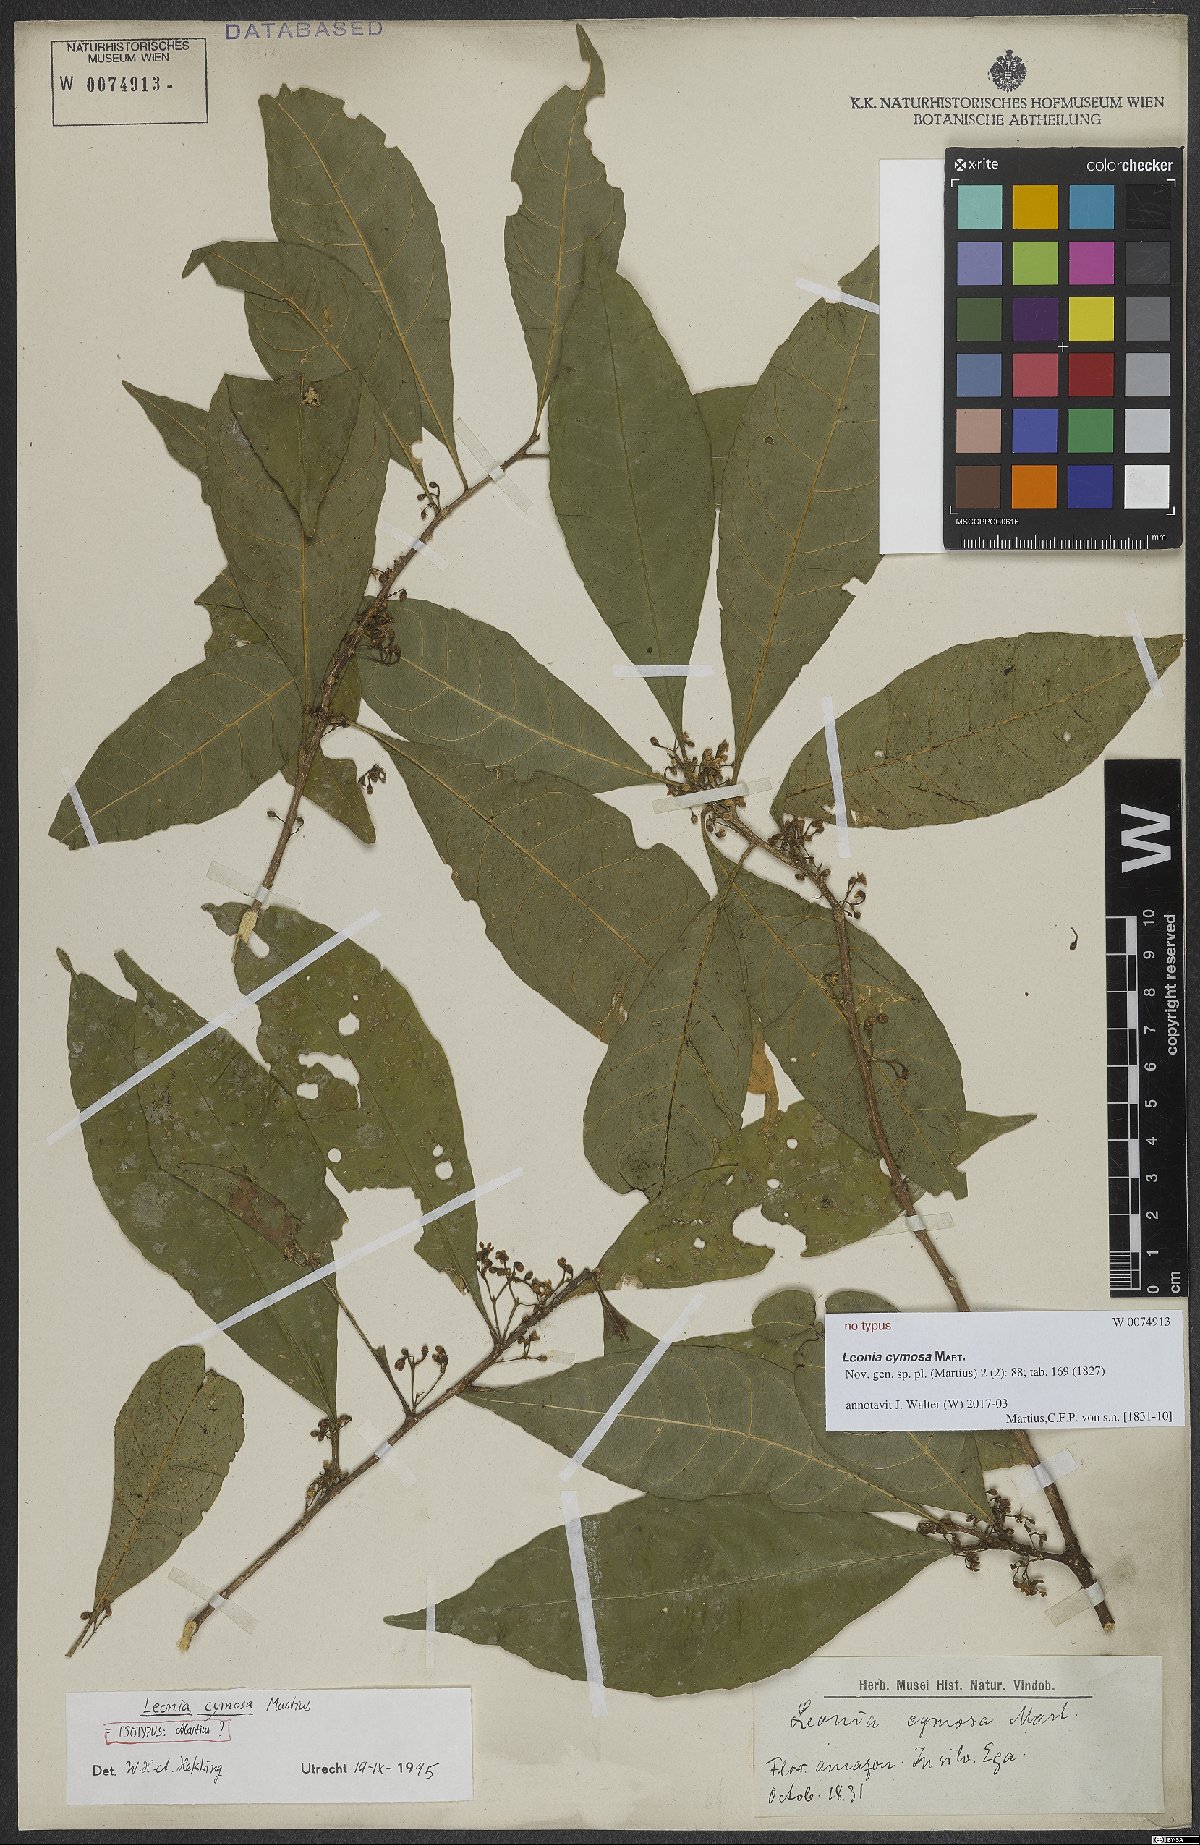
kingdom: Plantae
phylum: Tracheophyta
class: Magnoliopsida
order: Malpighiales
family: Violaceae
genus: Leonia
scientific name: Leonia cymosa
